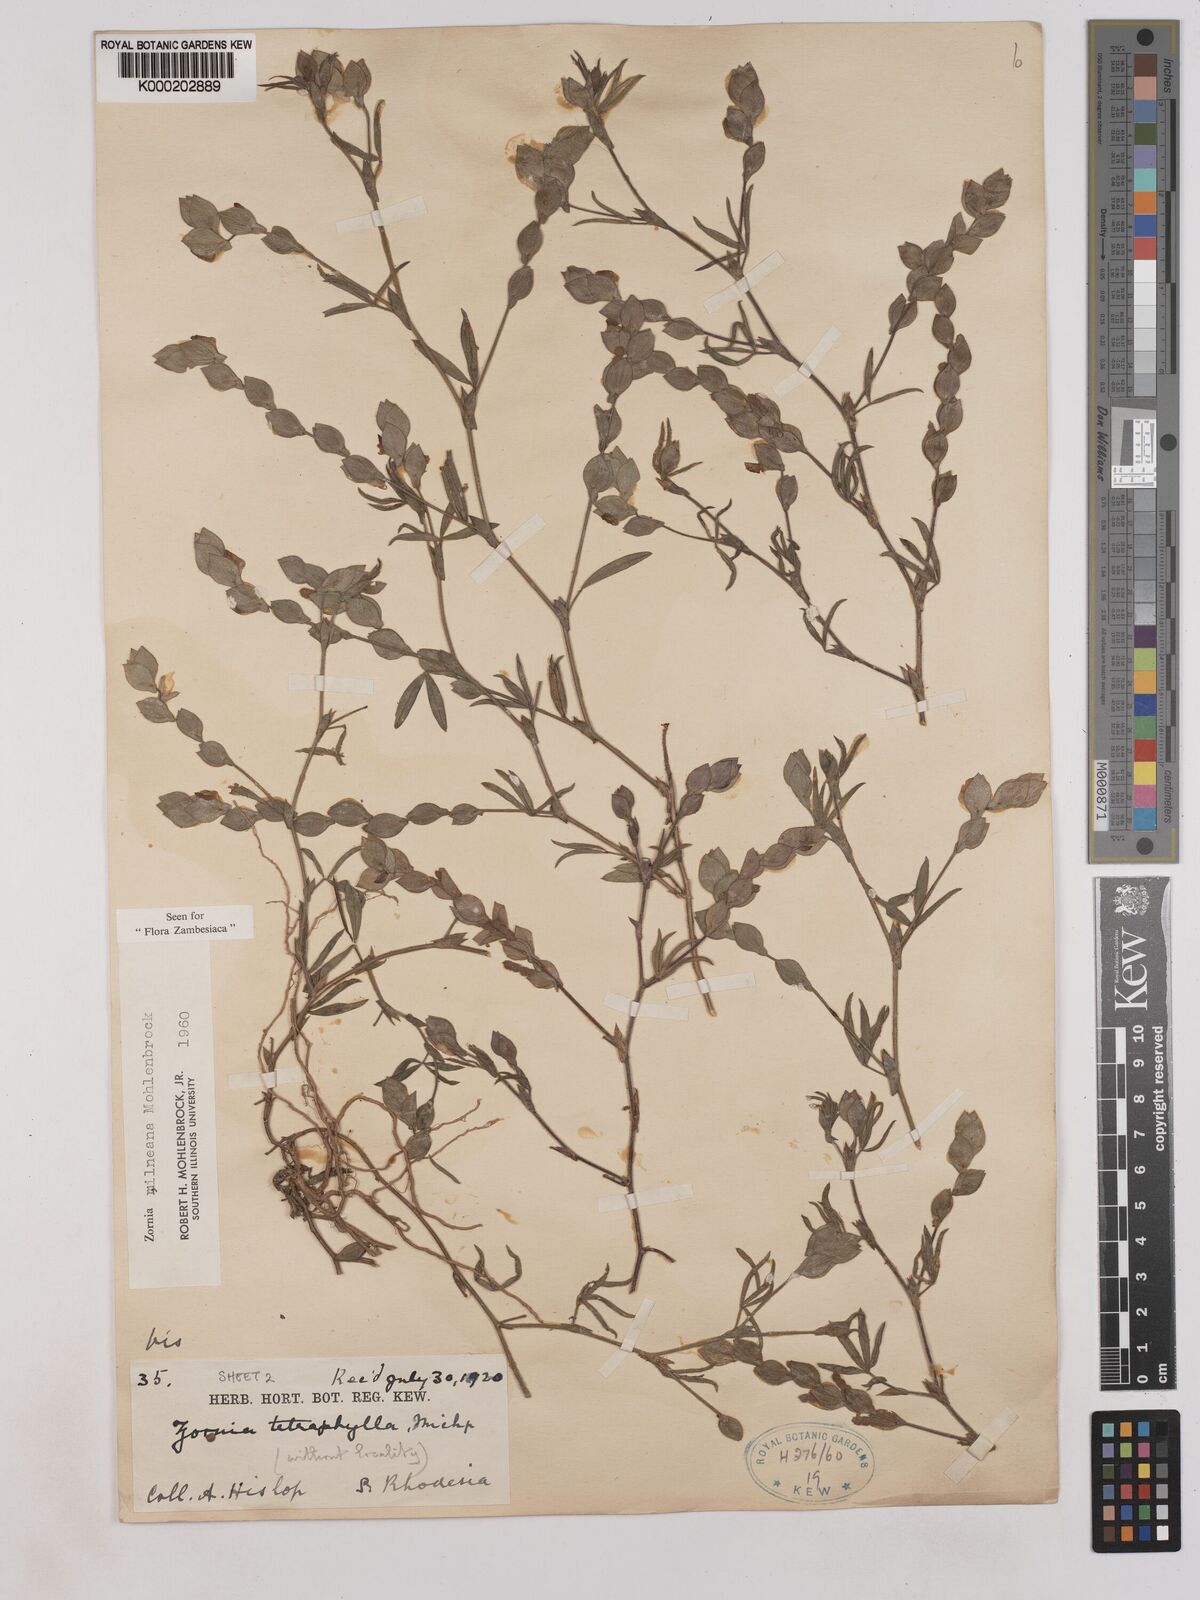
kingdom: Plantae
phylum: Tracheophyta
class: Magnoliopsida
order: Fabales
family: Fabaceae
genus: Zornia
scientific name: Zornia milneana
